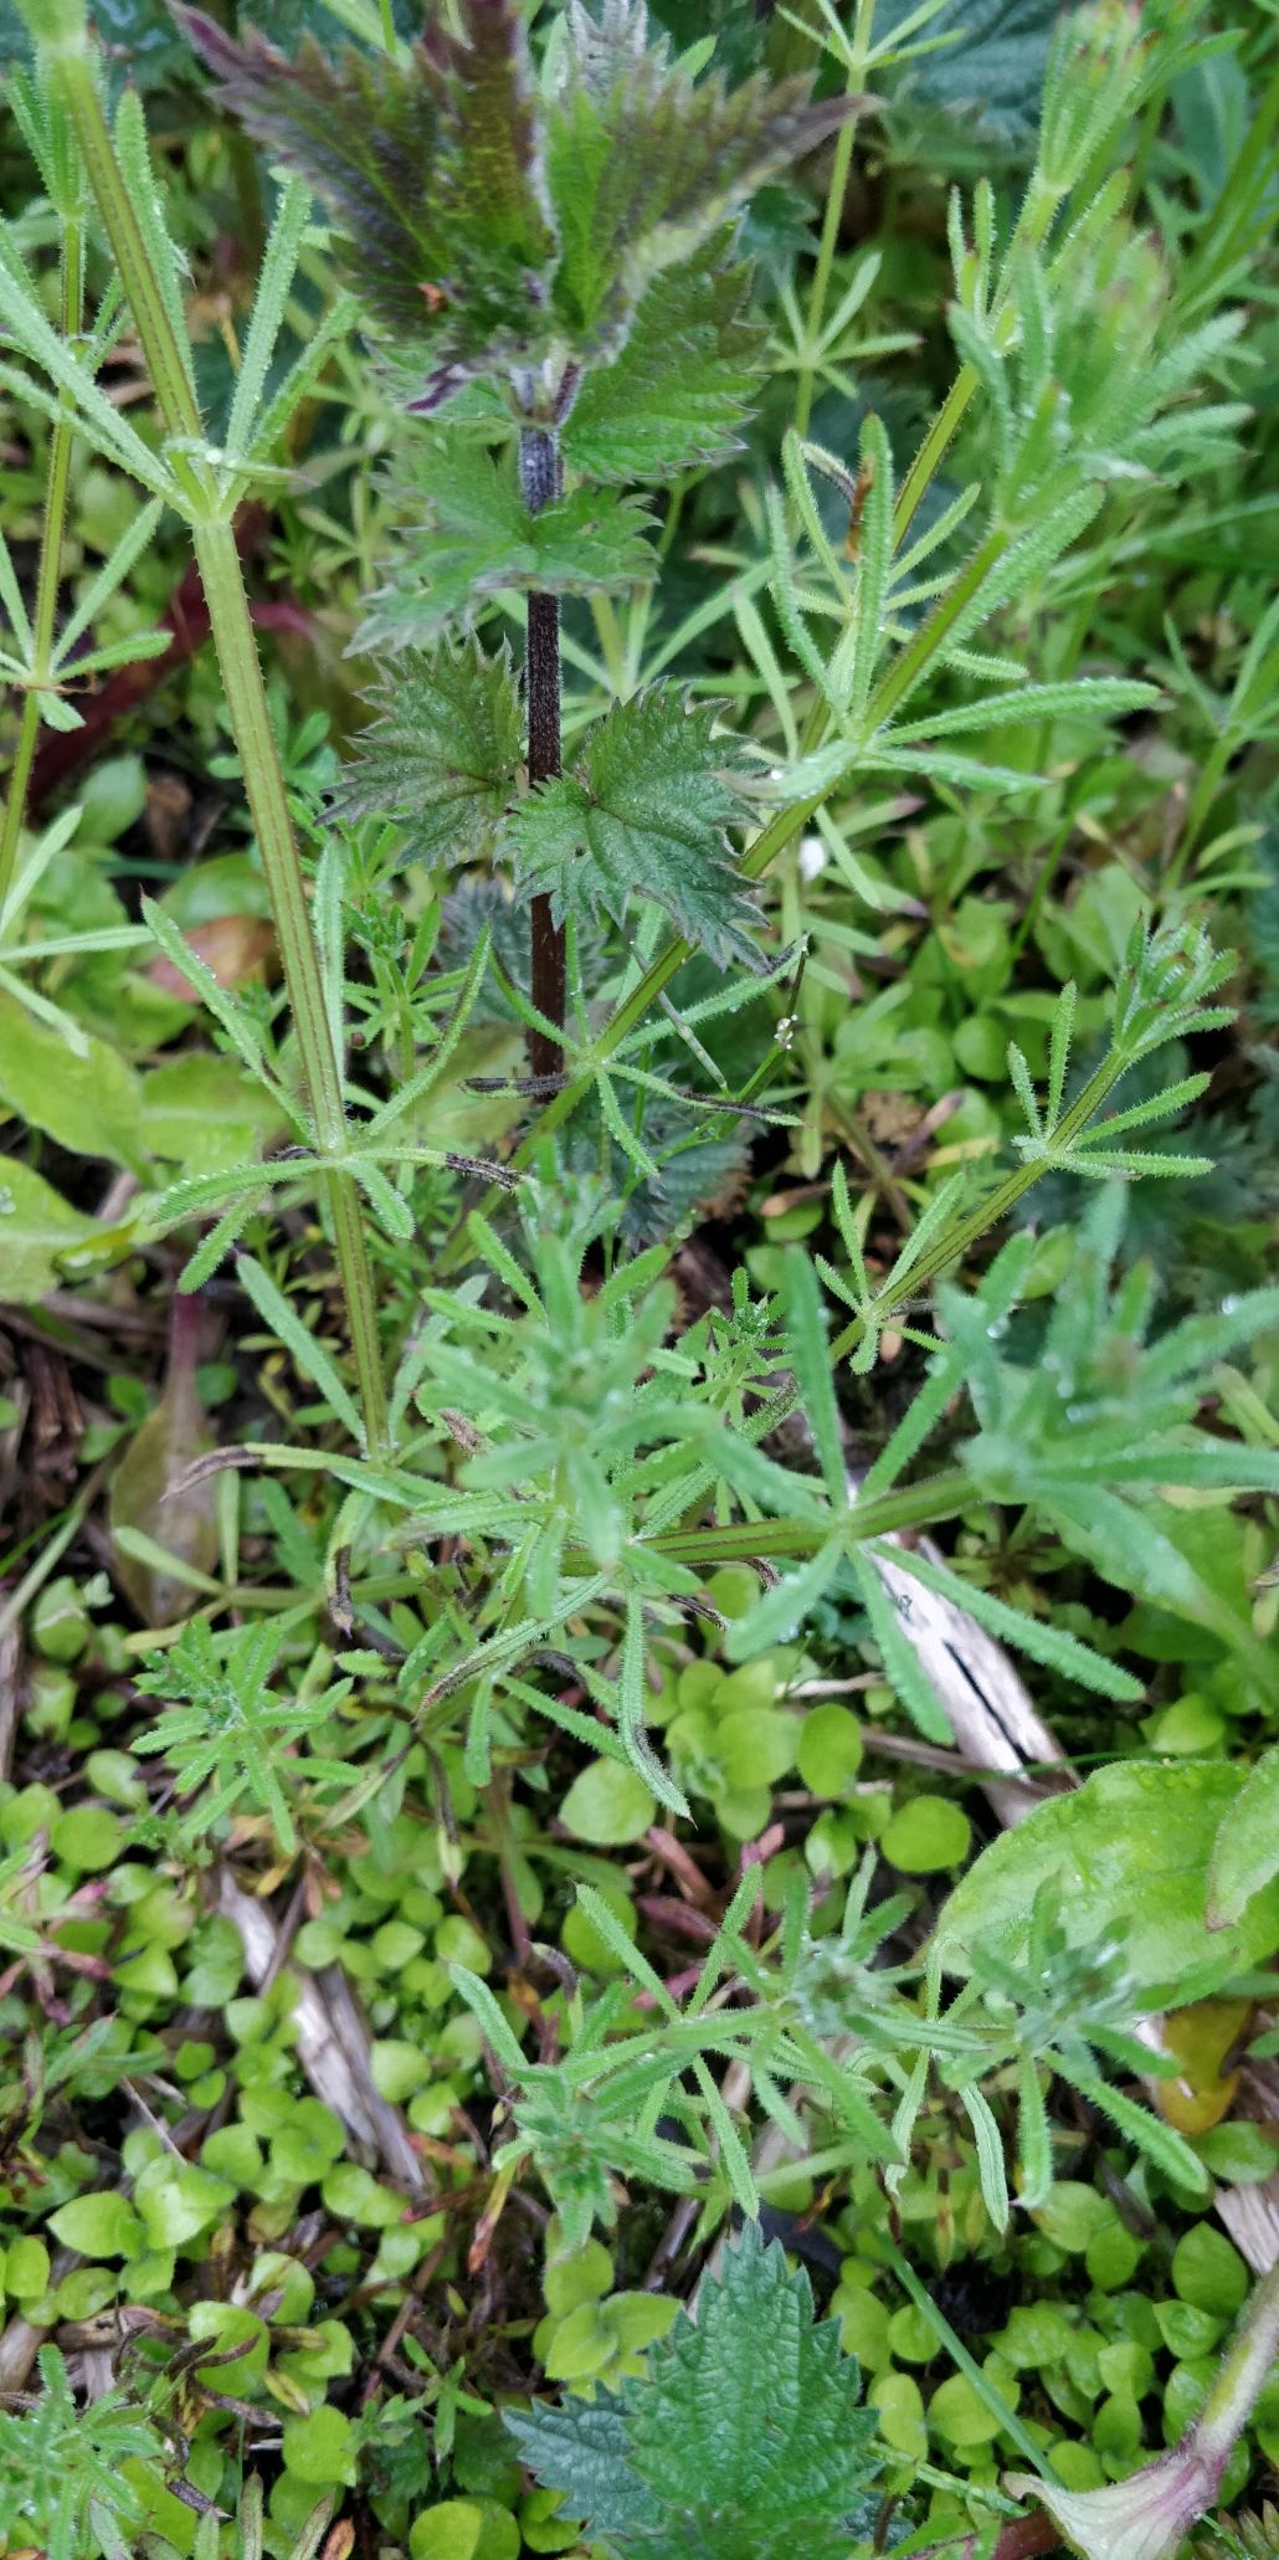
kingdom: Plantae
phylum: Tracheophyta
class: Magnoliopsida
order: Gentianales
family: Rubiaceae
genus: Galium
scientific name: Galium aparine
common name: Burre-snerre
